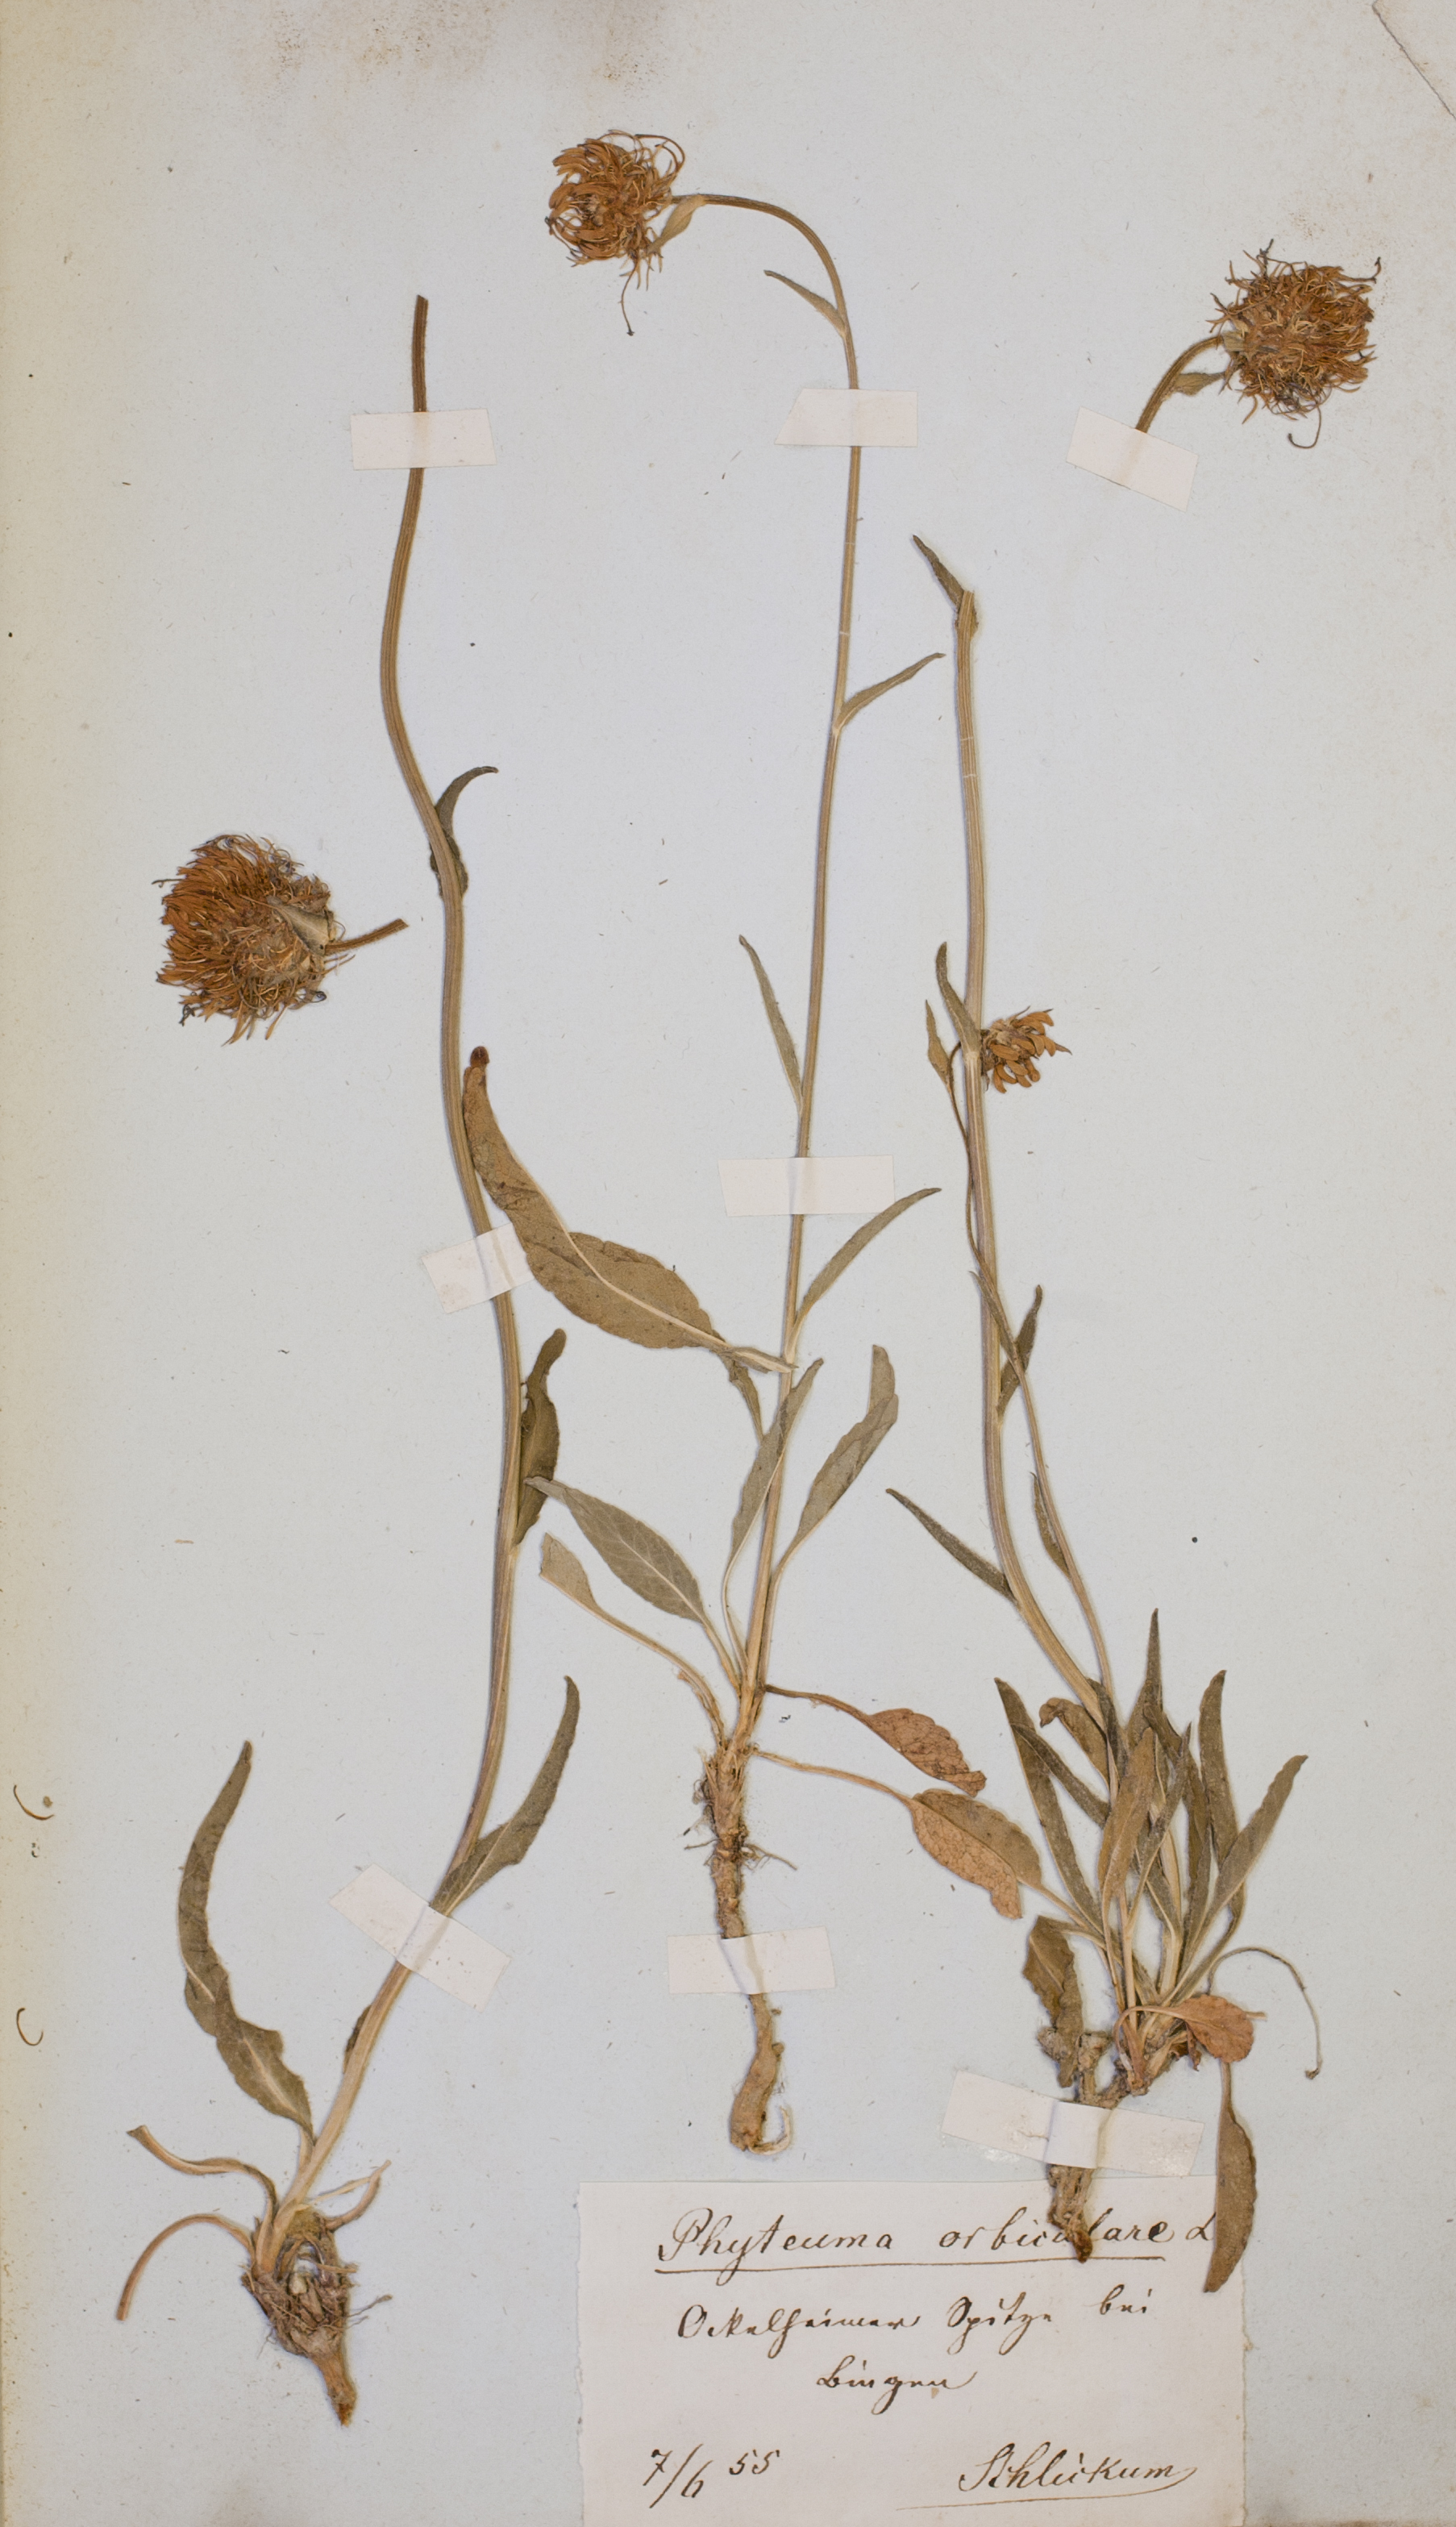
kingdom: Plantae
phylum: Tracheophyta
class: Magnoliopsida
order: Asterales
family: Campanulaceae
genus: Phyteuma
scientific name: Phyteuma orbiculare
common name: Round-headed rampion
